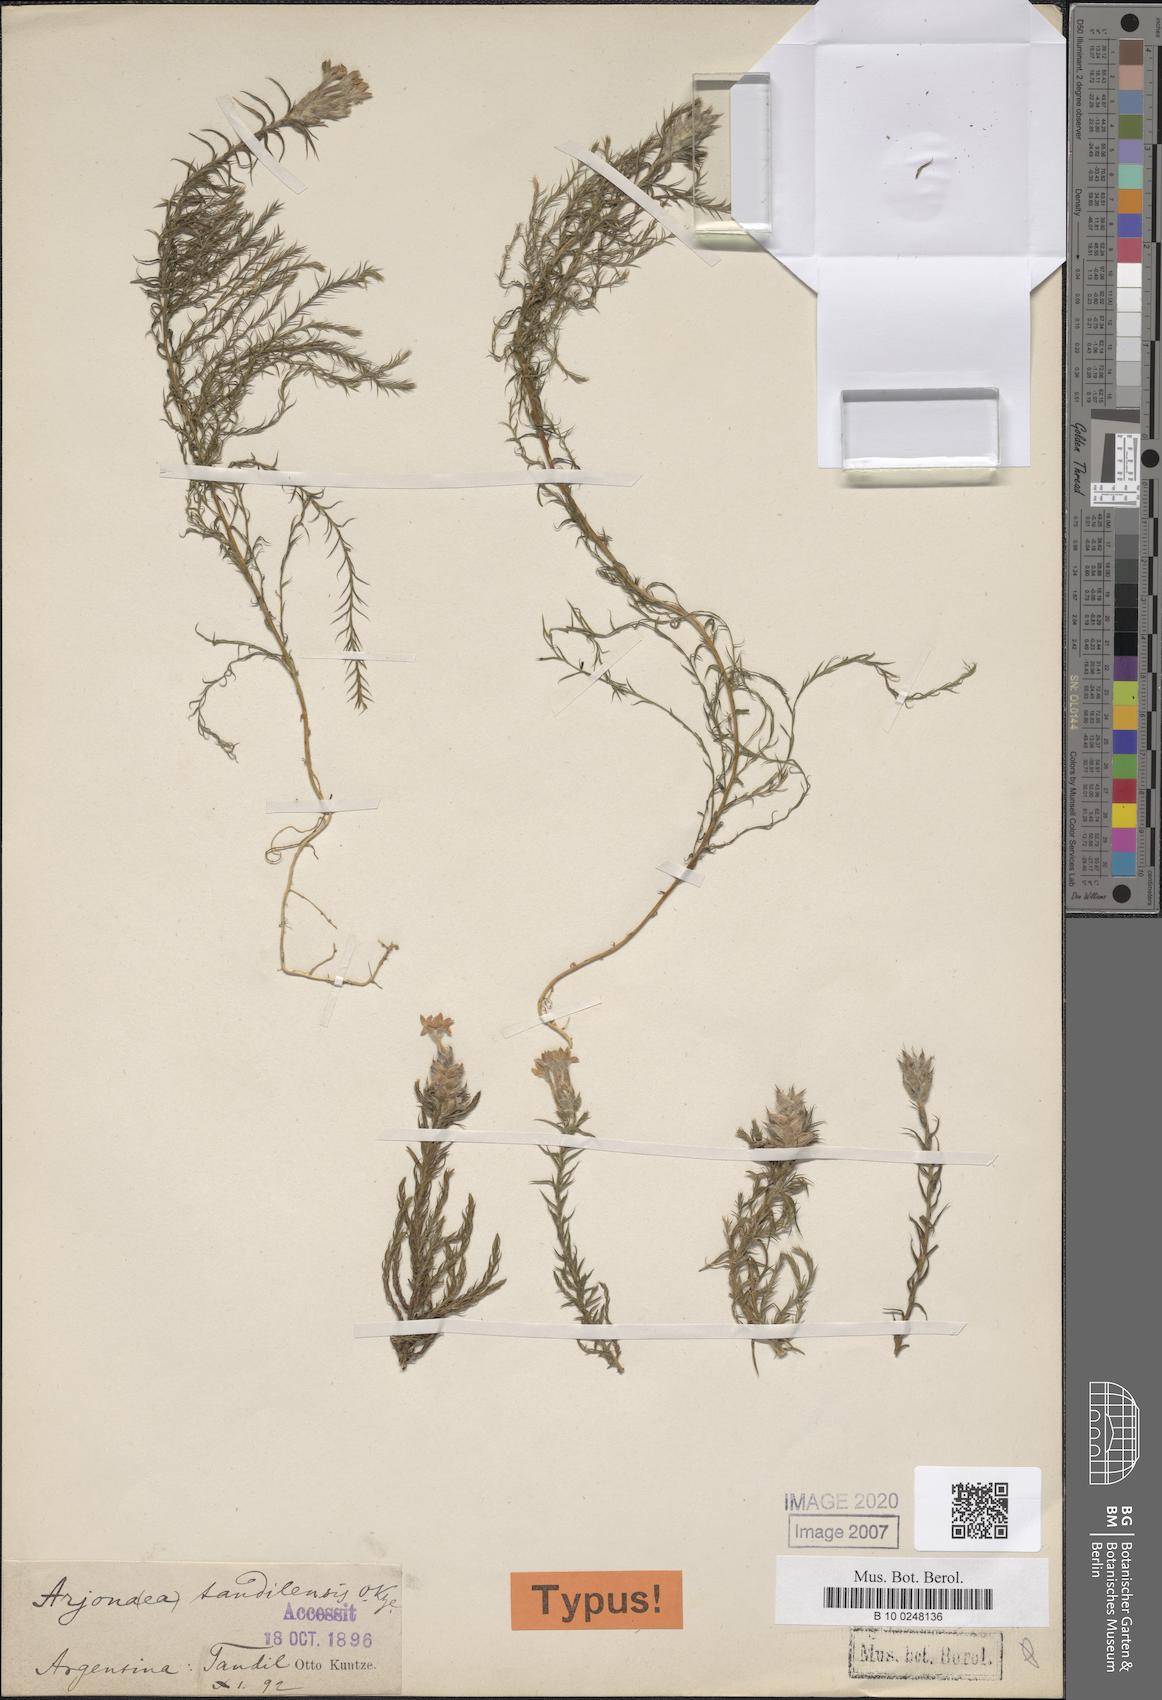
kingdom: Plantae
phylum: Tracheophyta
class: Magnoliopsida
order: Santalales
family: Schoepfiaceae
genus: Arjona
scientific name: Arjona tuberosa
